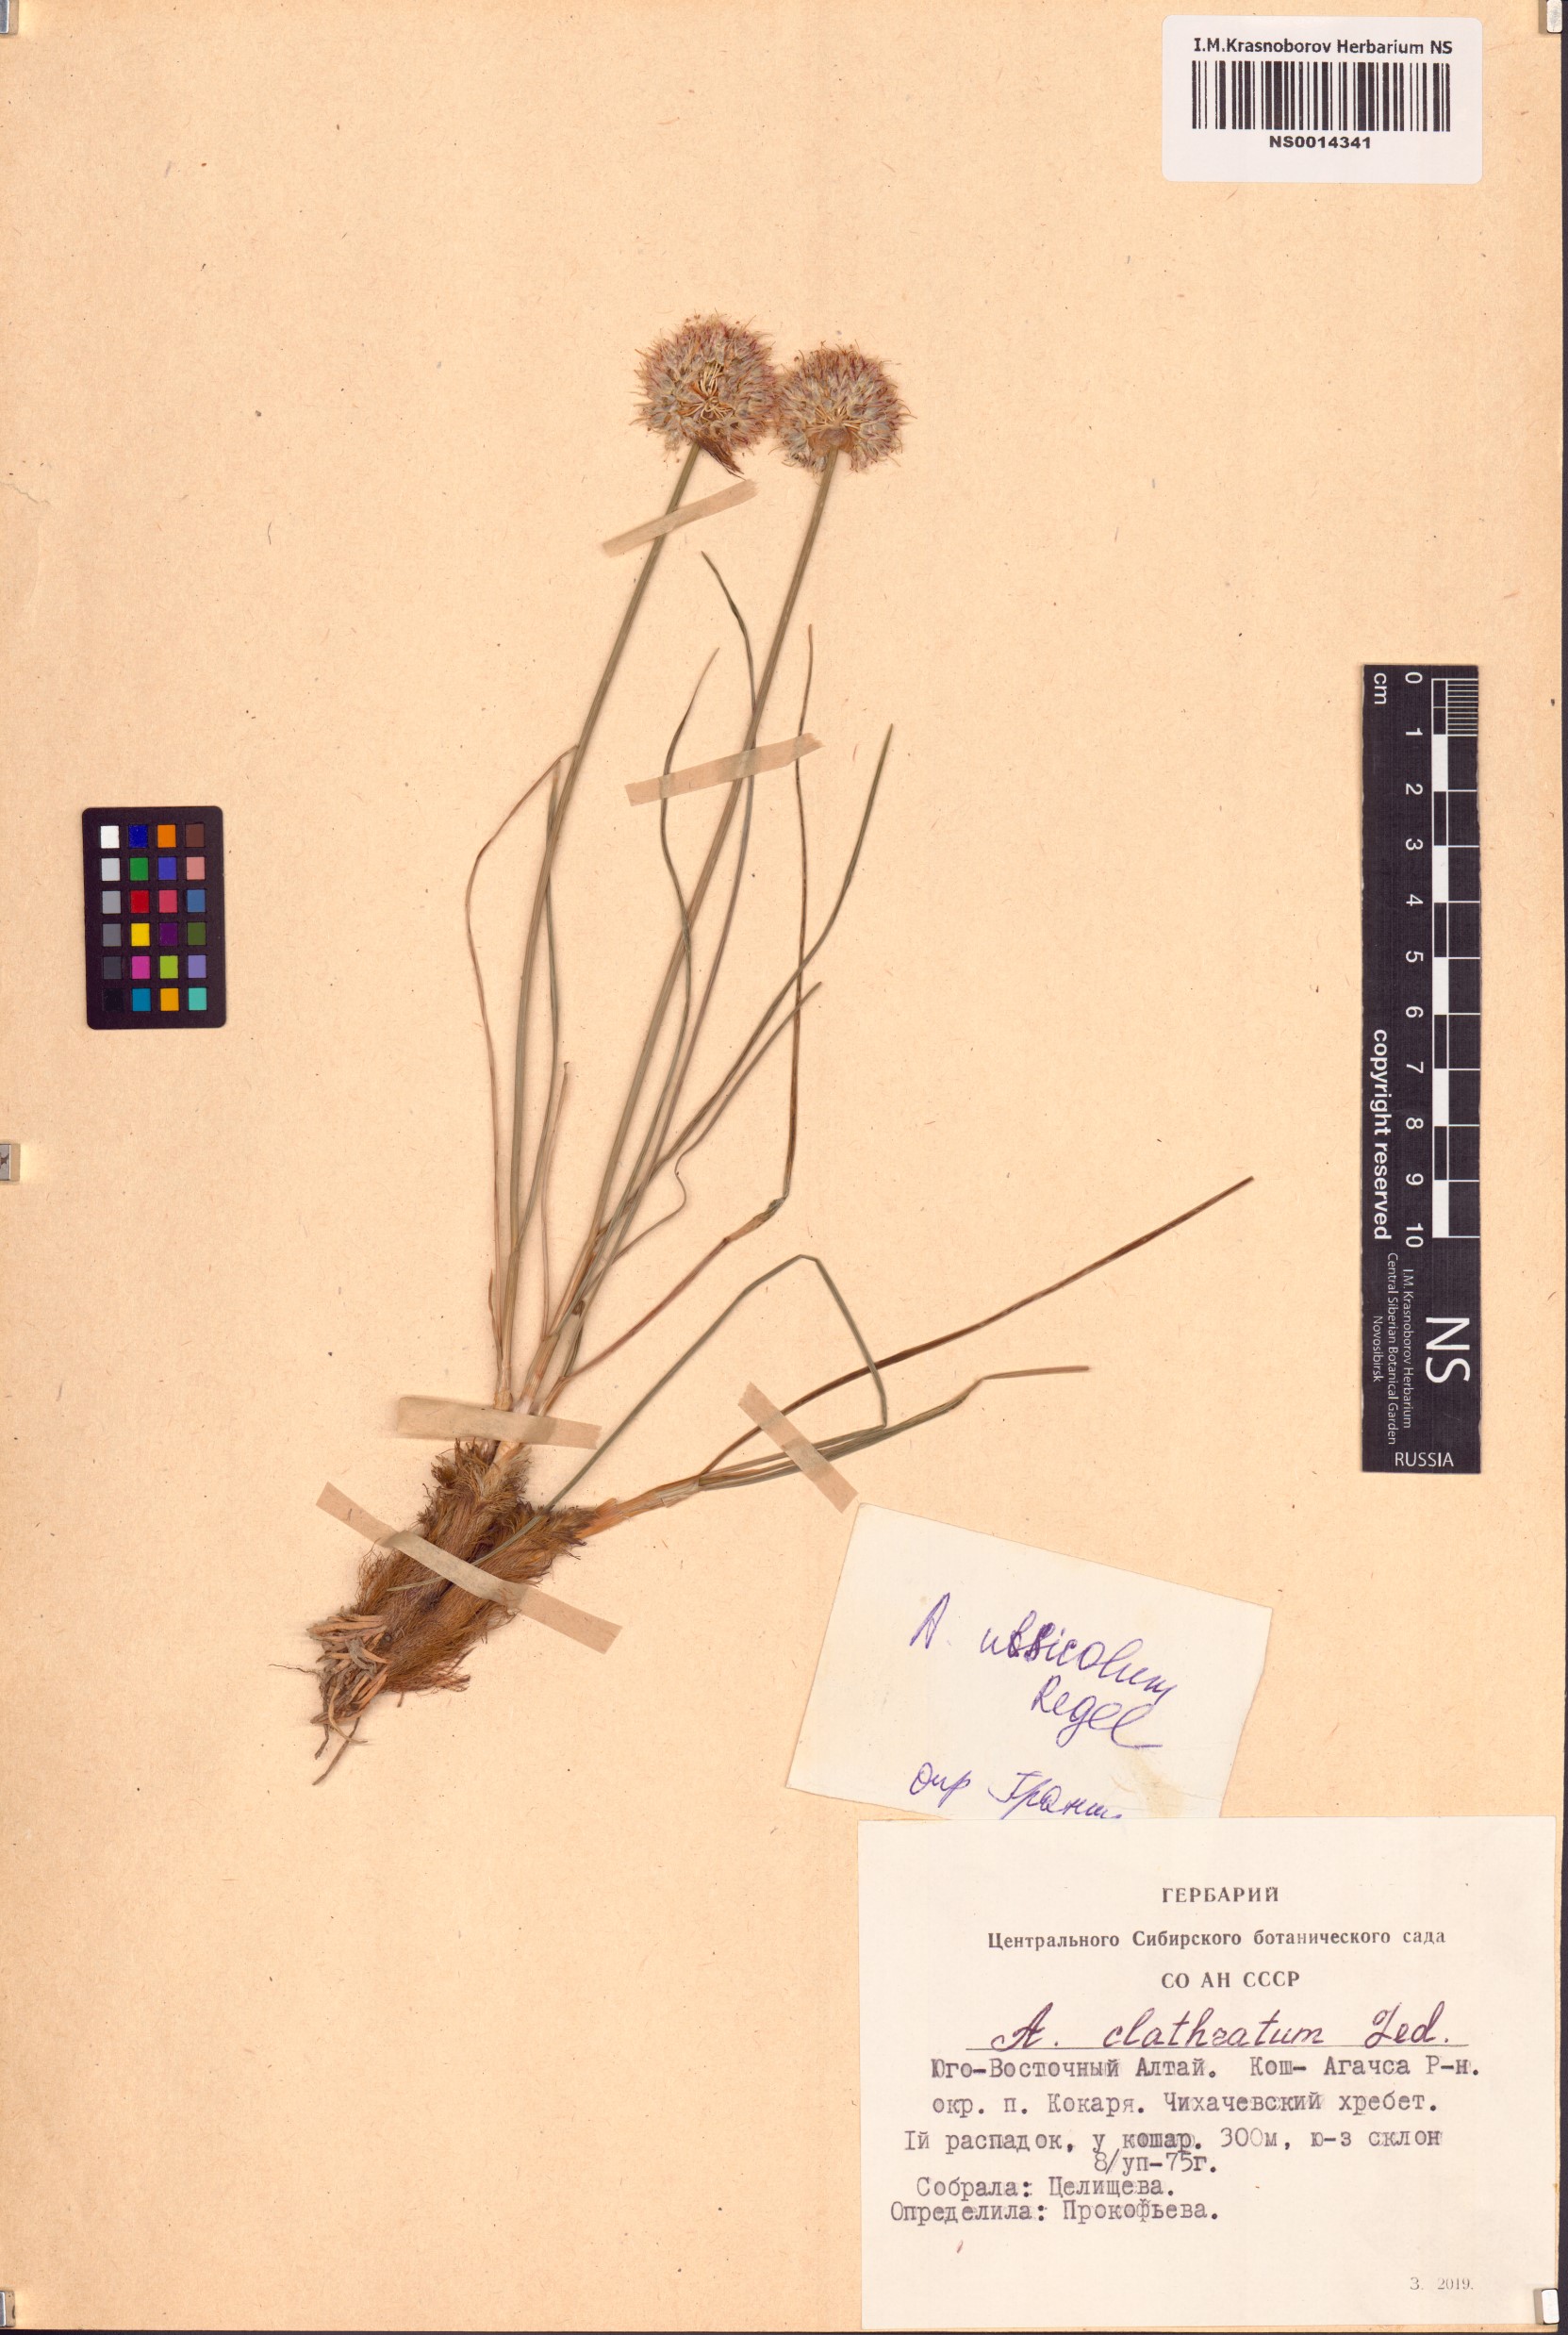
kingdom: Plantae
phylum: Tracheophyta
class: Liliopsida
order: Asparagales
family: Amaryllidaceae
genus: Allium
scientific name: Allium ubsicola
